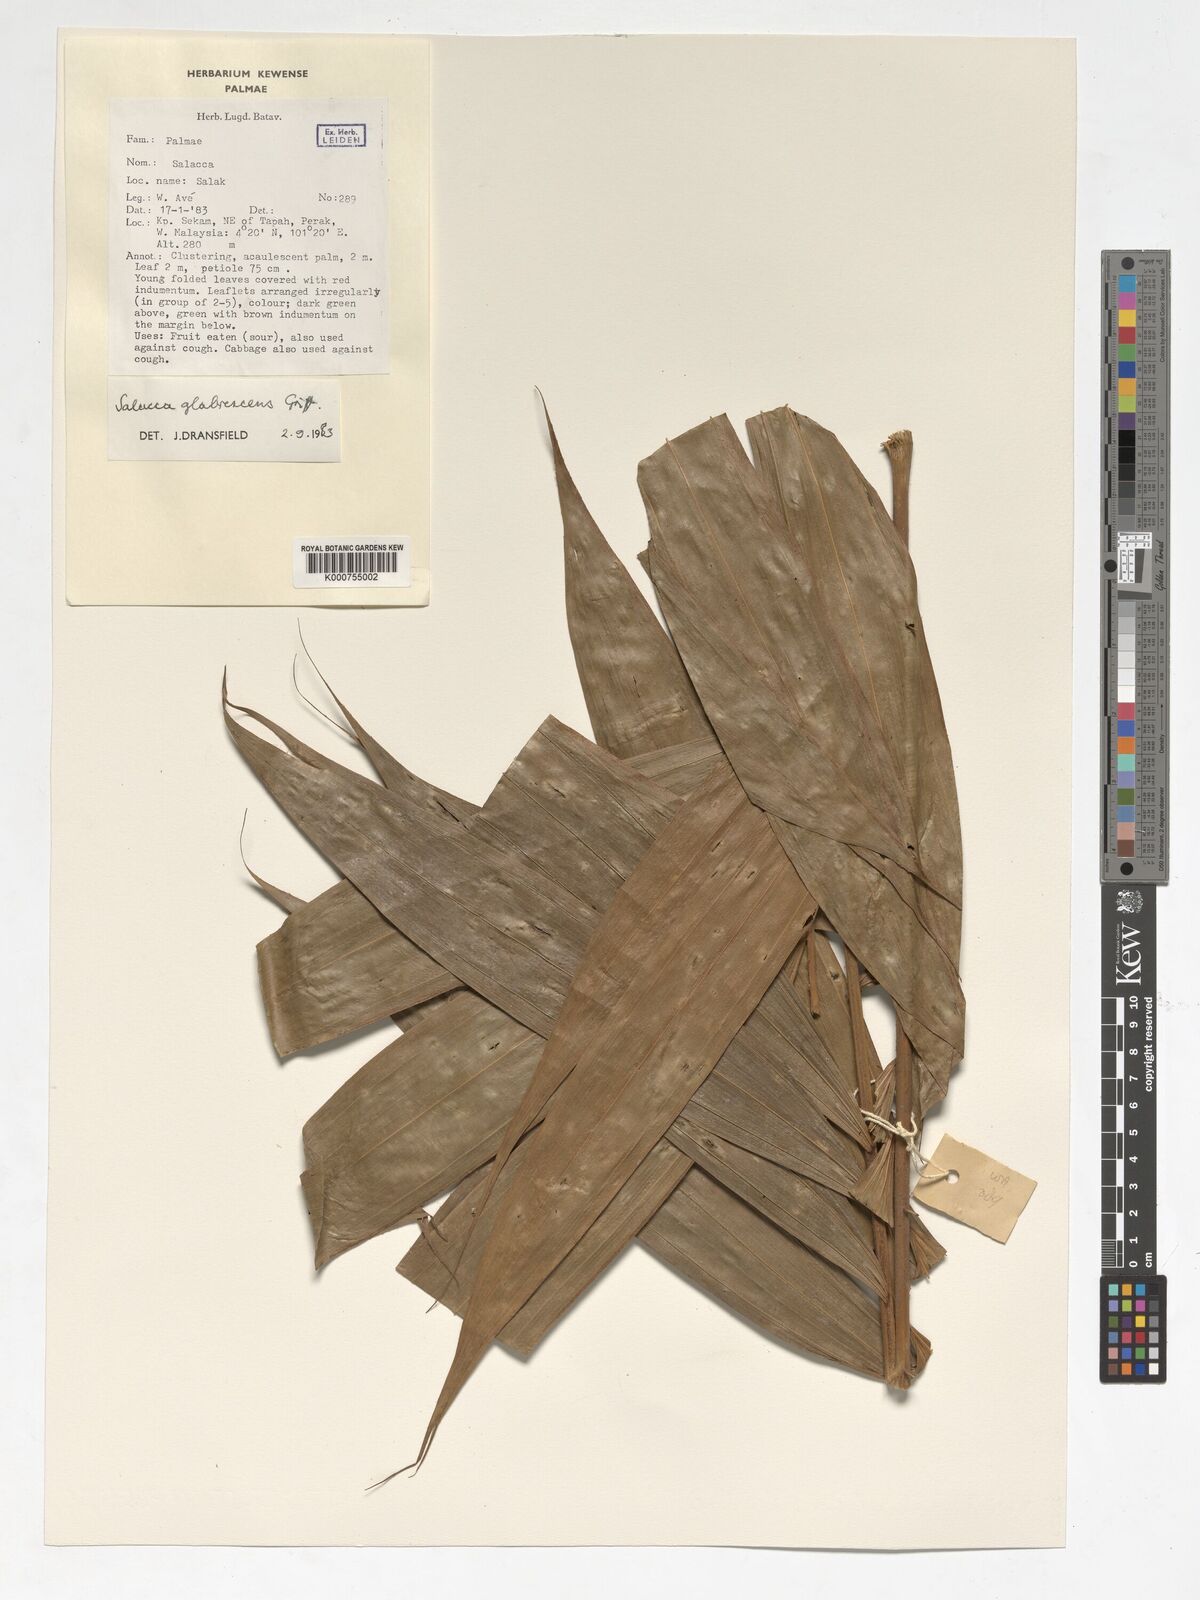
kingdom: Plantae
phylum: Tracheophyta
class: Liliopsida
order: Arecales
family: Arecaceae
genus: Salacca
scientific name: Salacca glabrescens
